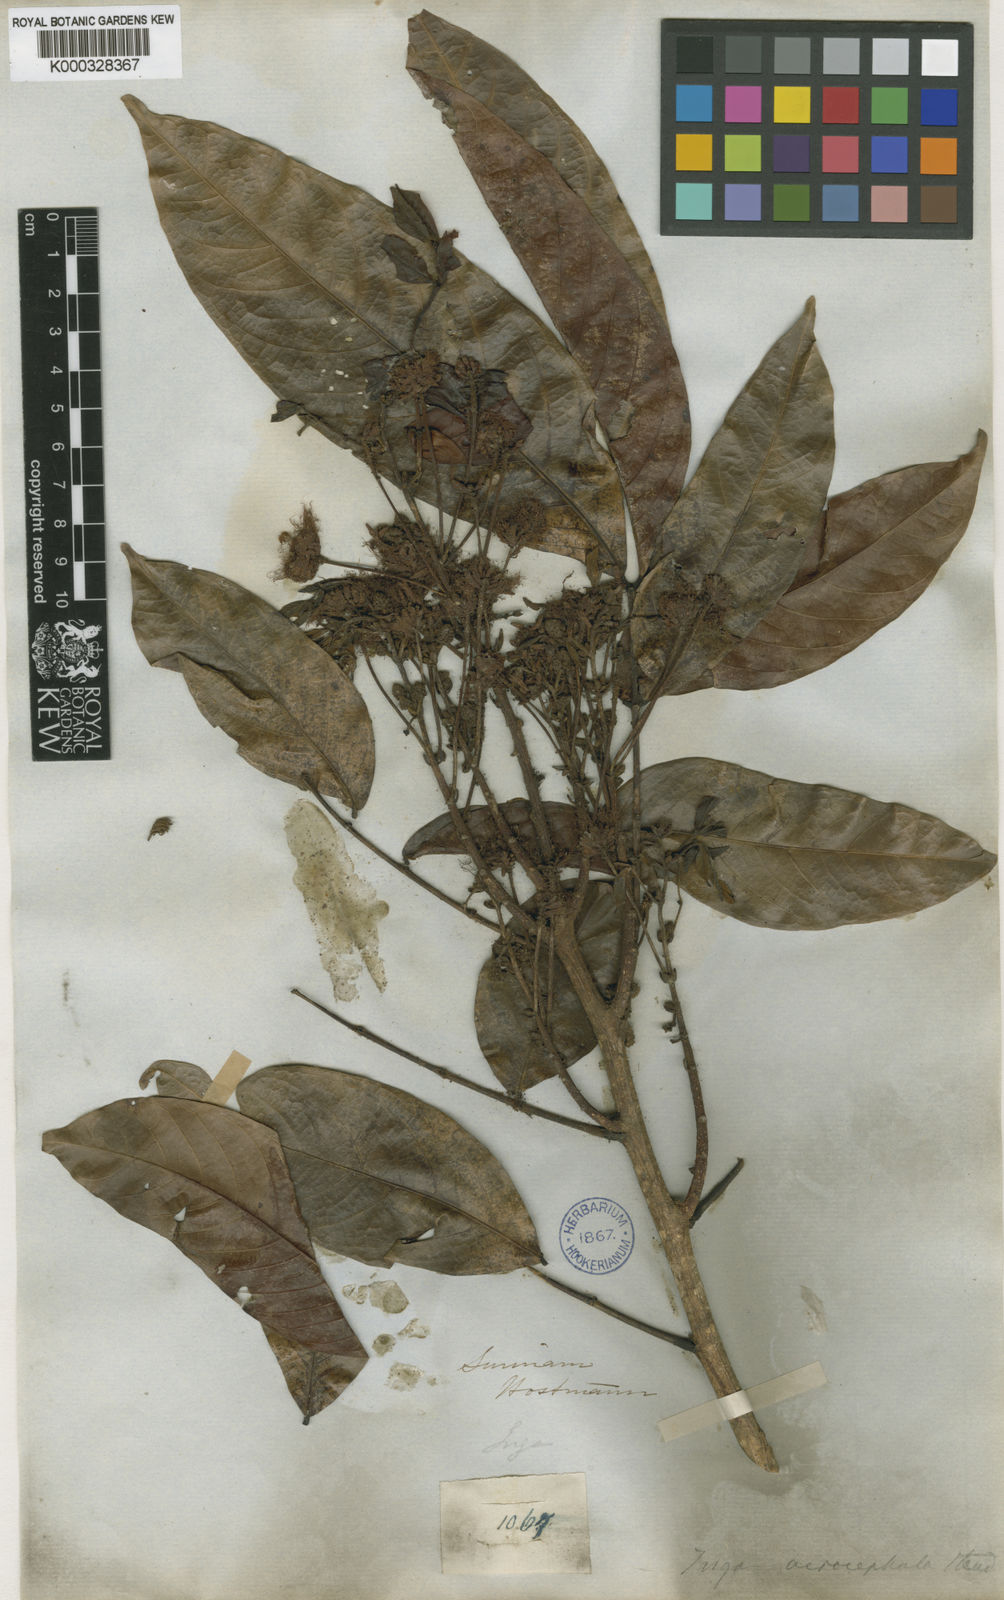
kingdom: Plantae
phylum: Tracheophyta
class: Magnoliopsida
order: Fabales
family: Fabaceae
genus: Inga
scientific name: Inga acrocephala
